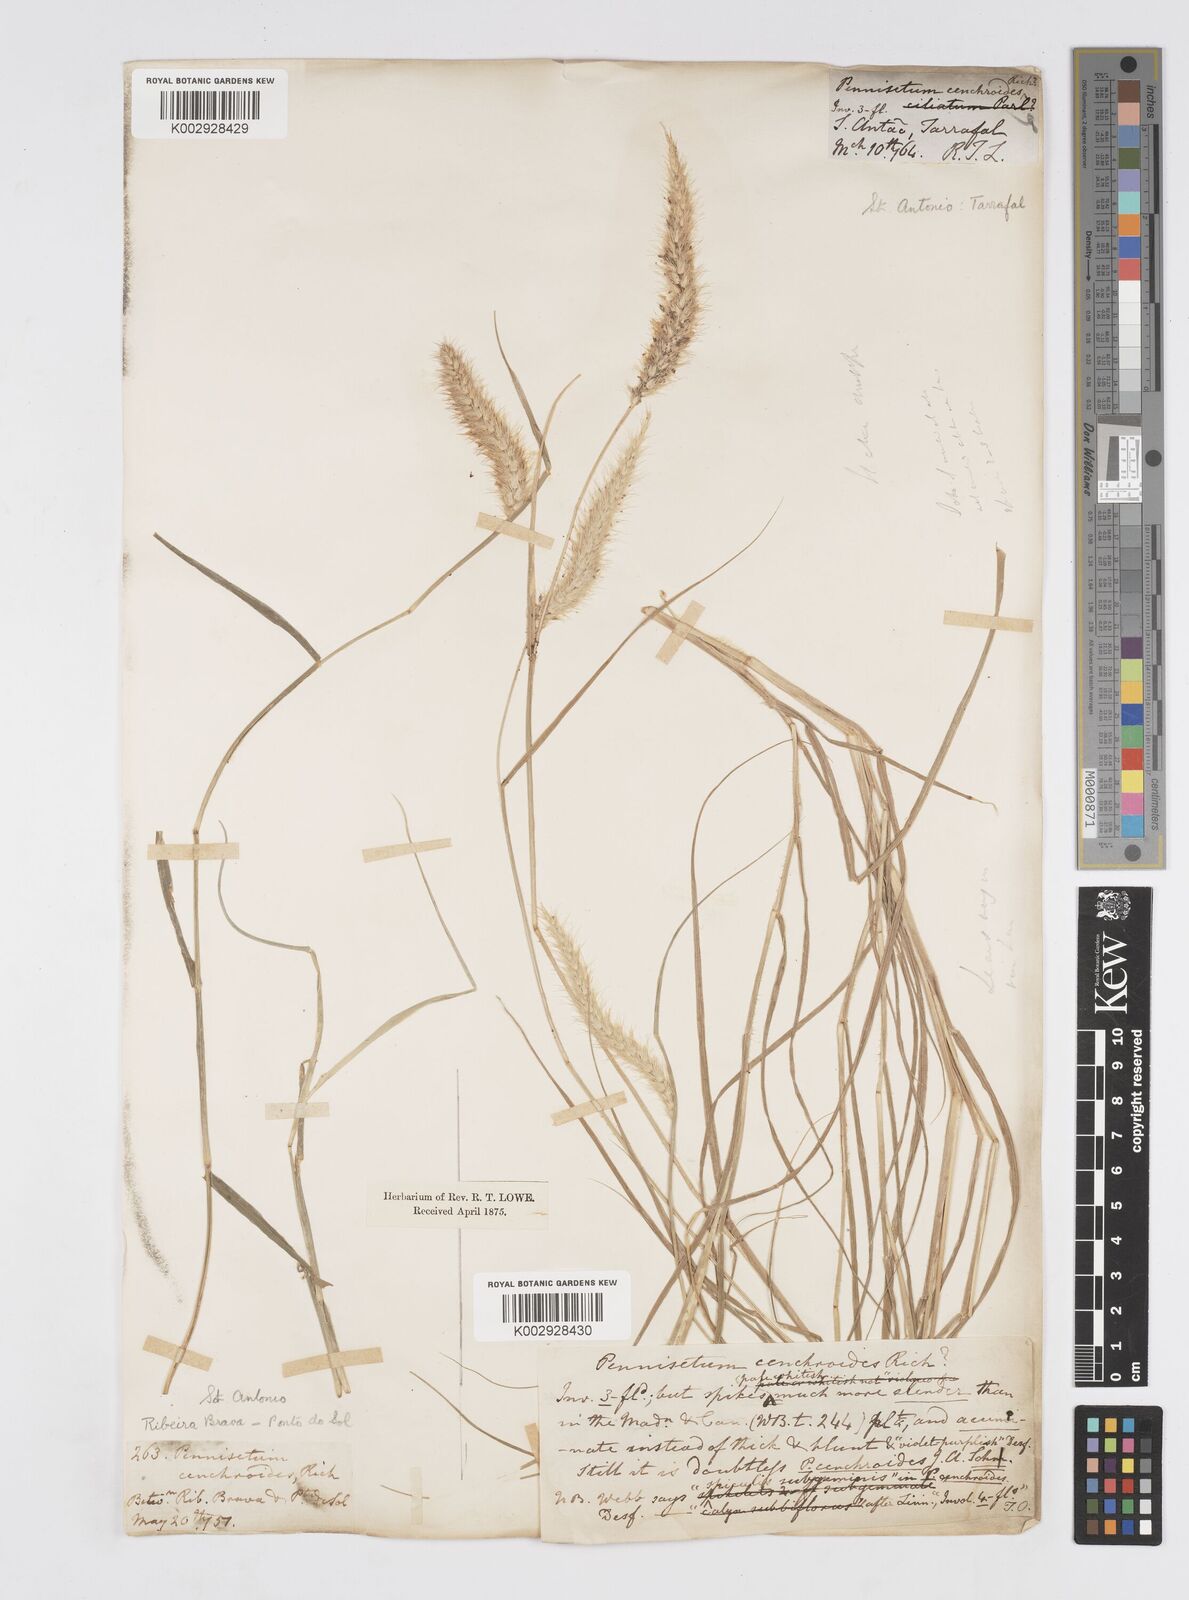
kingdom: Plantae
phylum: Tracheophyta
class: Liliopsida
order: Poales
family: Poaceae
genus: Cenchrus
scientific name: Cenchrus ciliaris
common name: Buffelgrass
